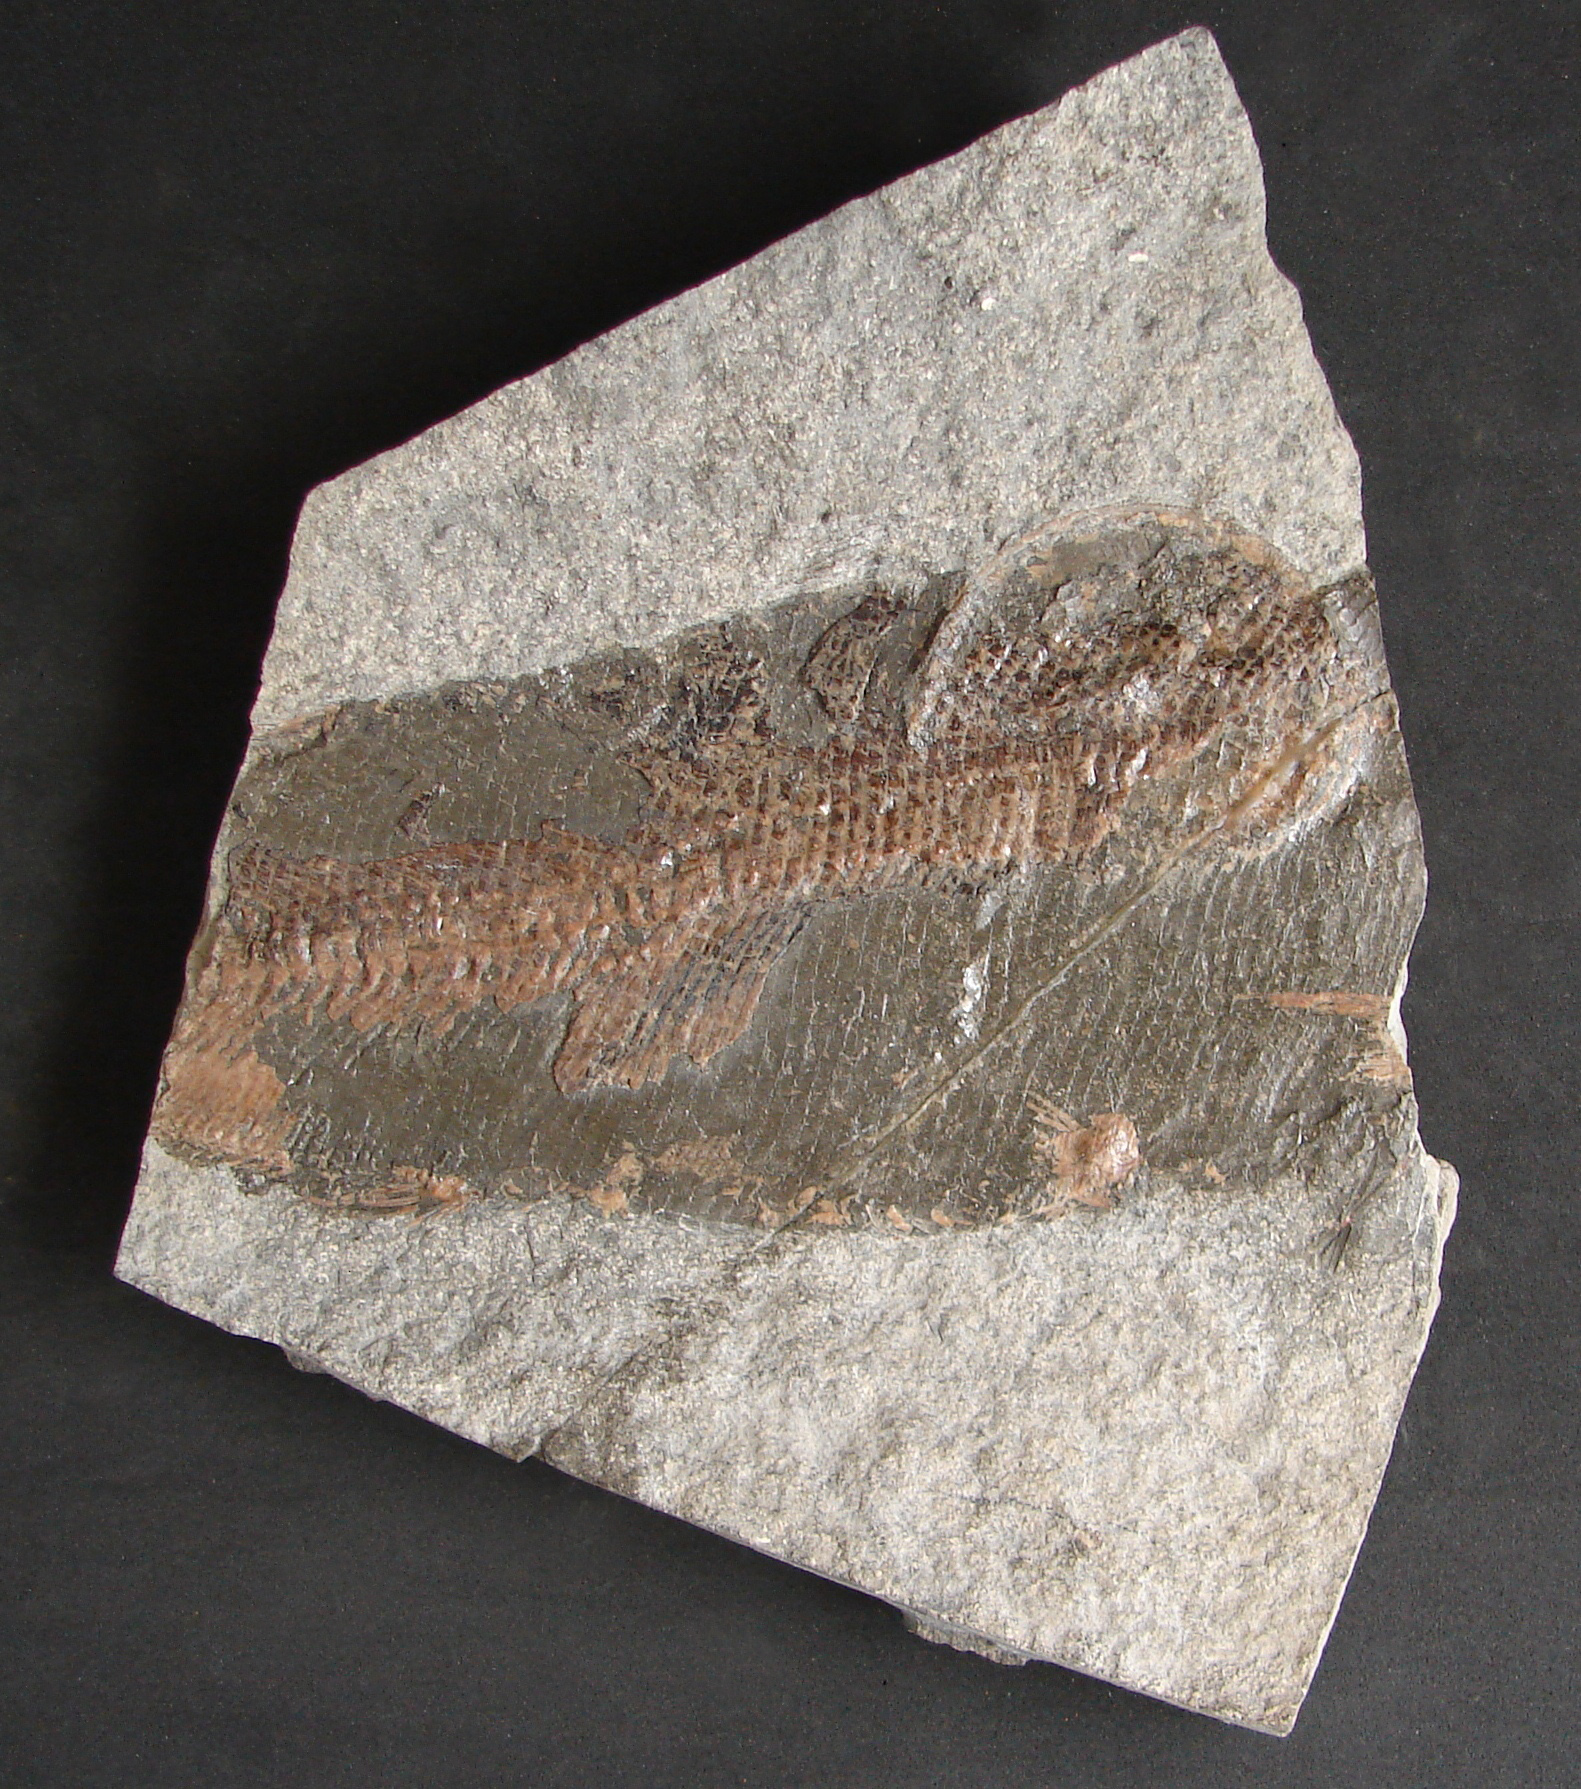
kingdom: Animalia
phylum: Chordata
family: Pachycormidae
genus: Euthynotus
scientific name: Euthynotus
